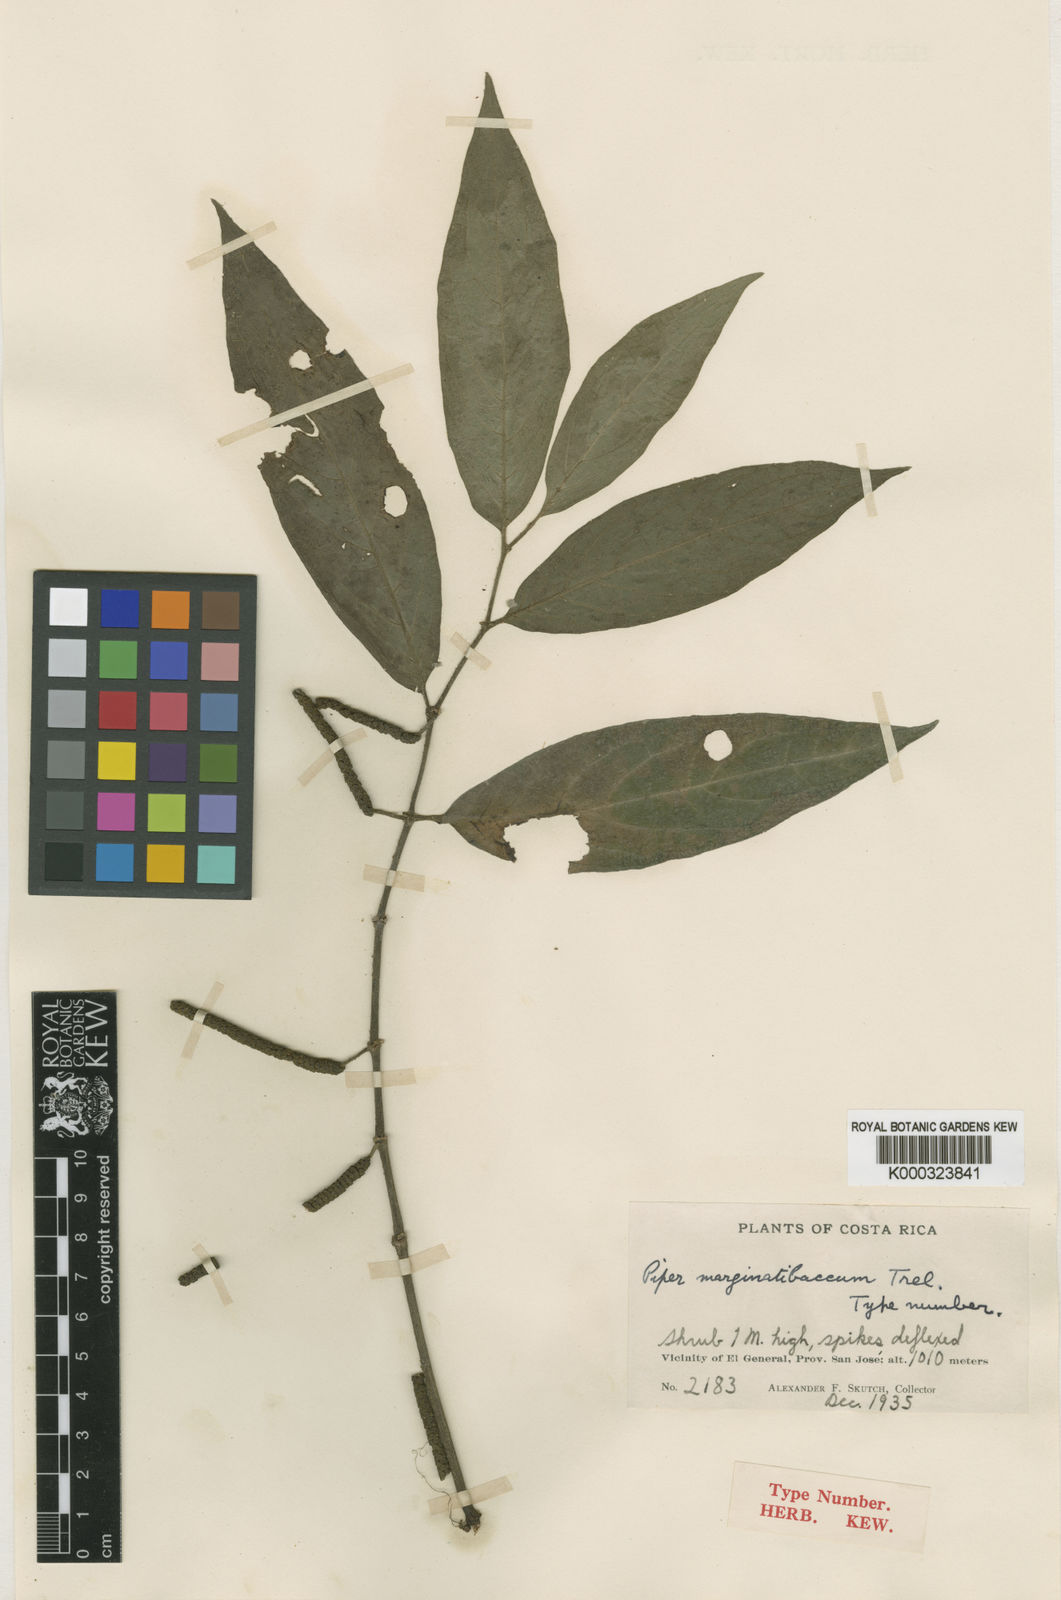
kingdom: Plantae
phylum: Tracheophyta
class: Magnoliopsida
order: Piperales
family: Piperaceae
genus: Piper
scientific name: Piper trigonum
